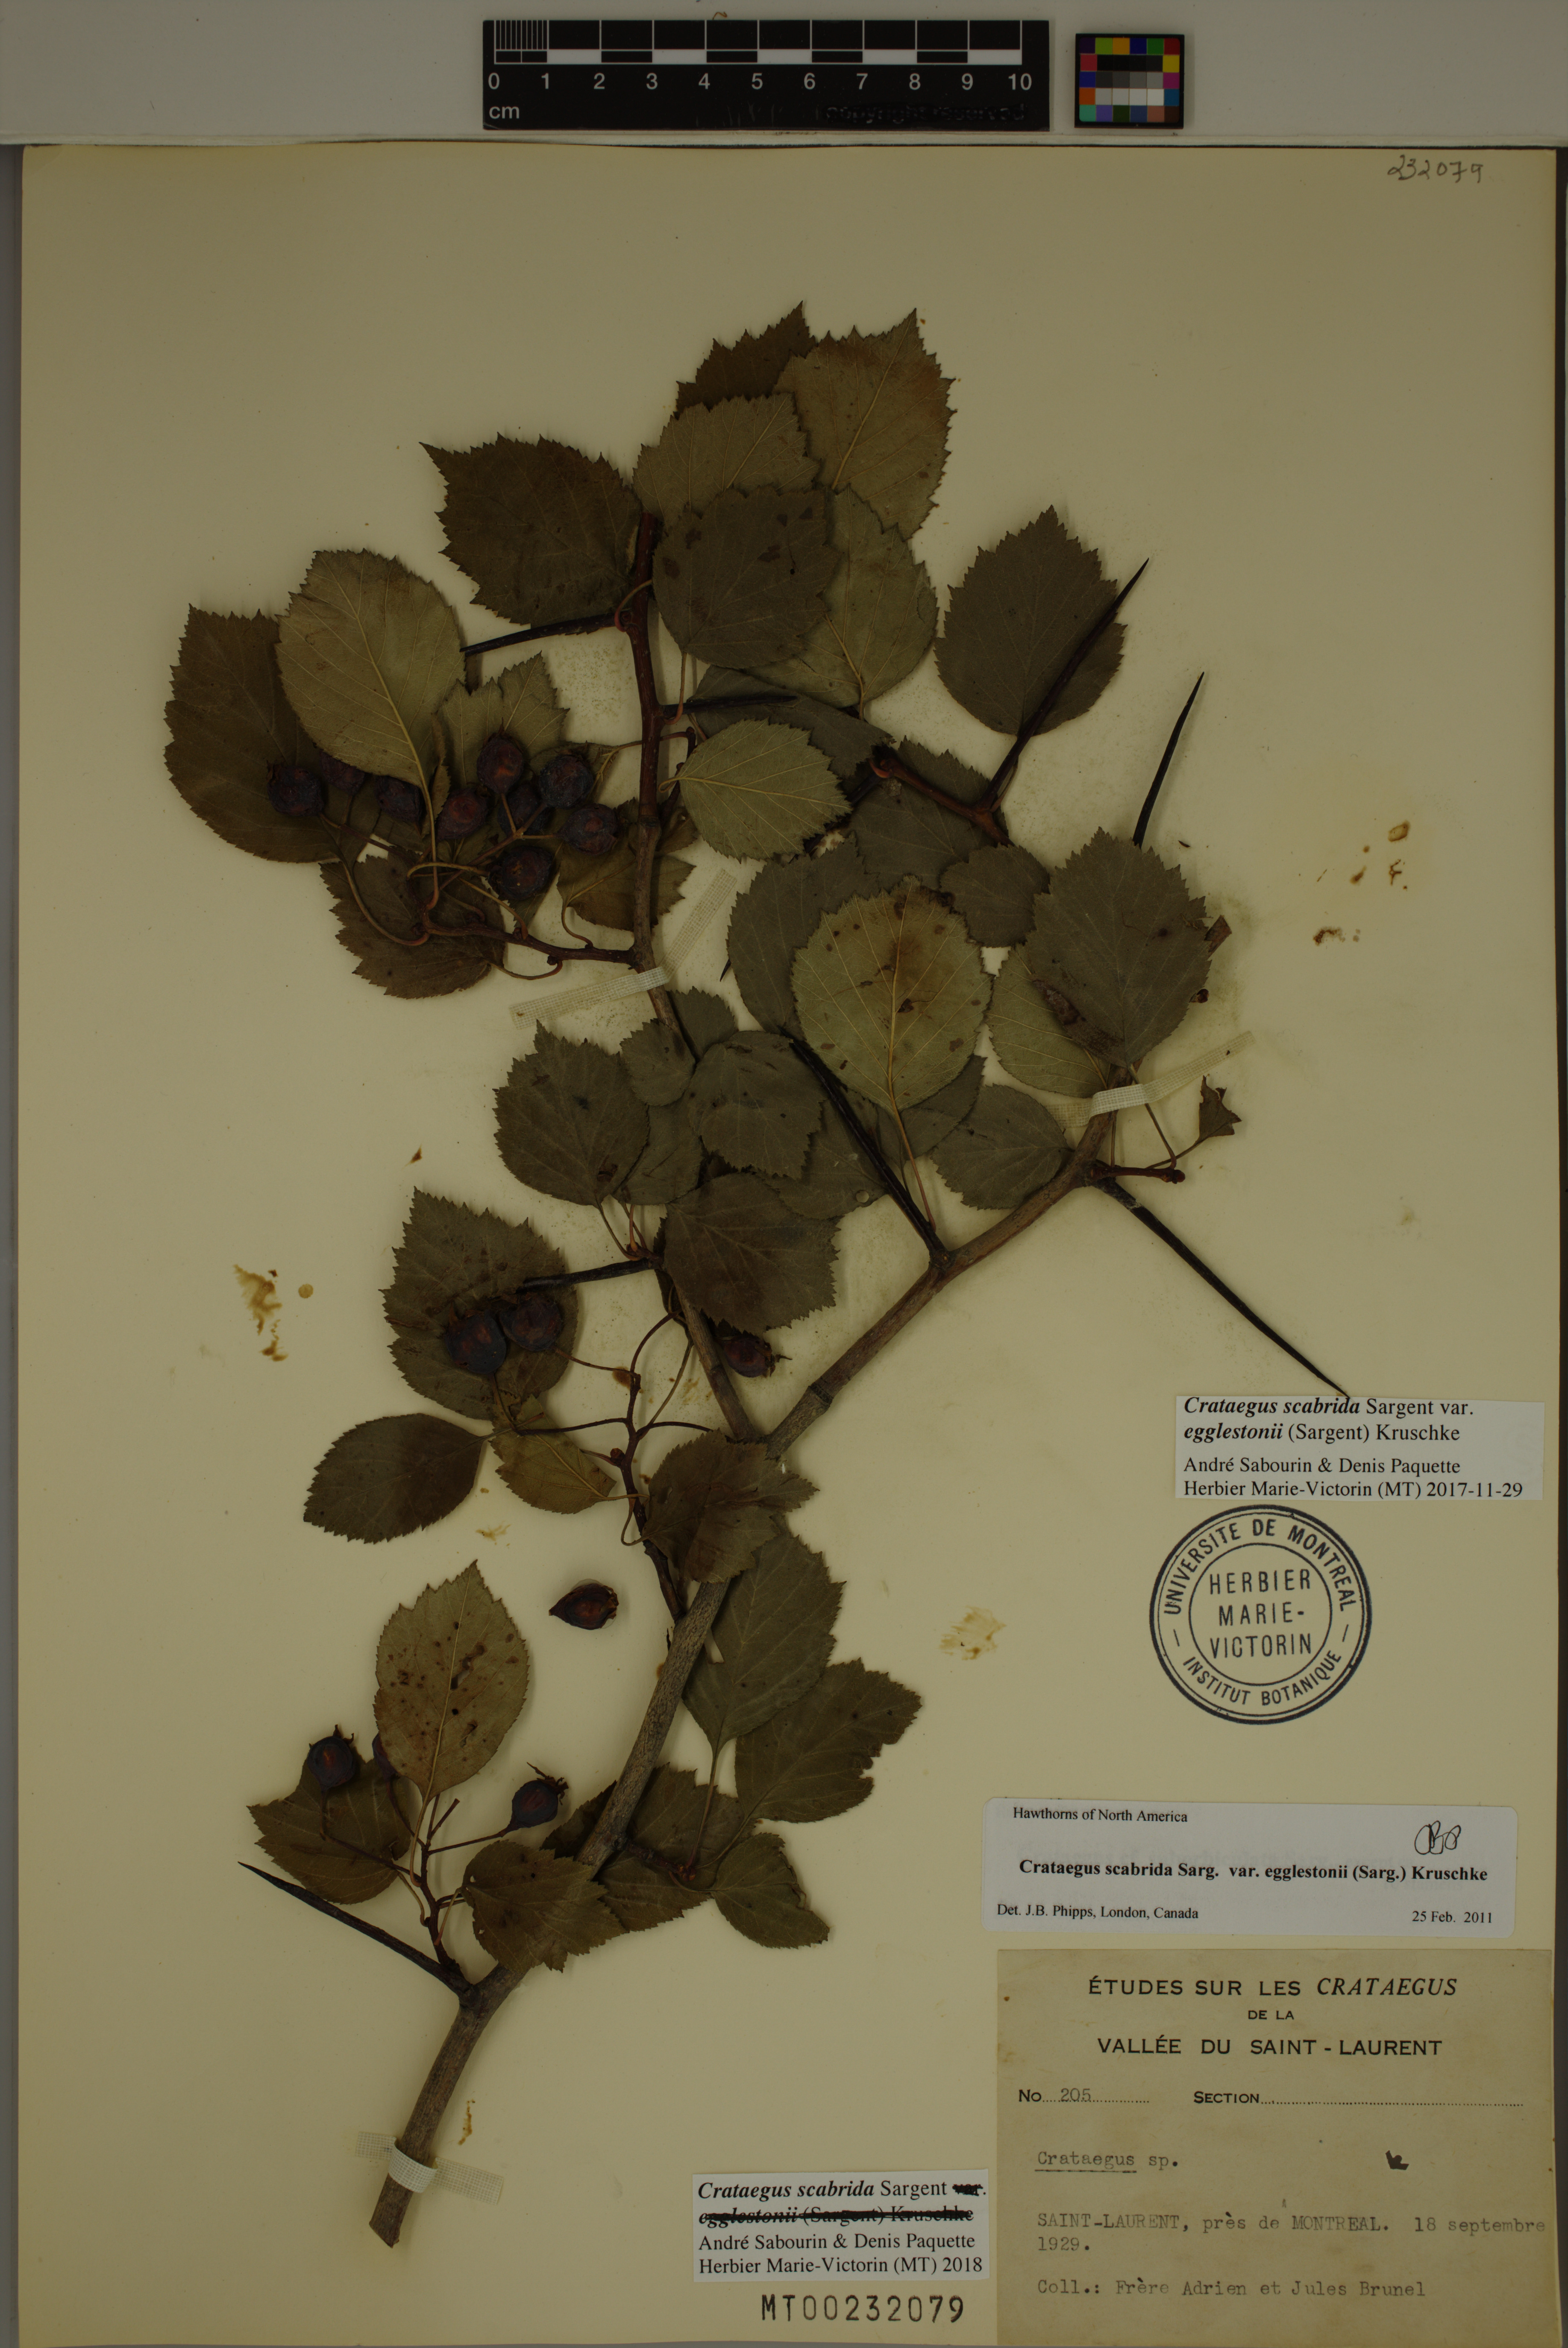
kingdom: Plantae
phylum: Tracheophyta
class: Magnoliopsida
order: Rosales
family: Rosaceae
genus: Crataegus
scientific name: Crataegus scabrida
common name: Rough hawthorn
